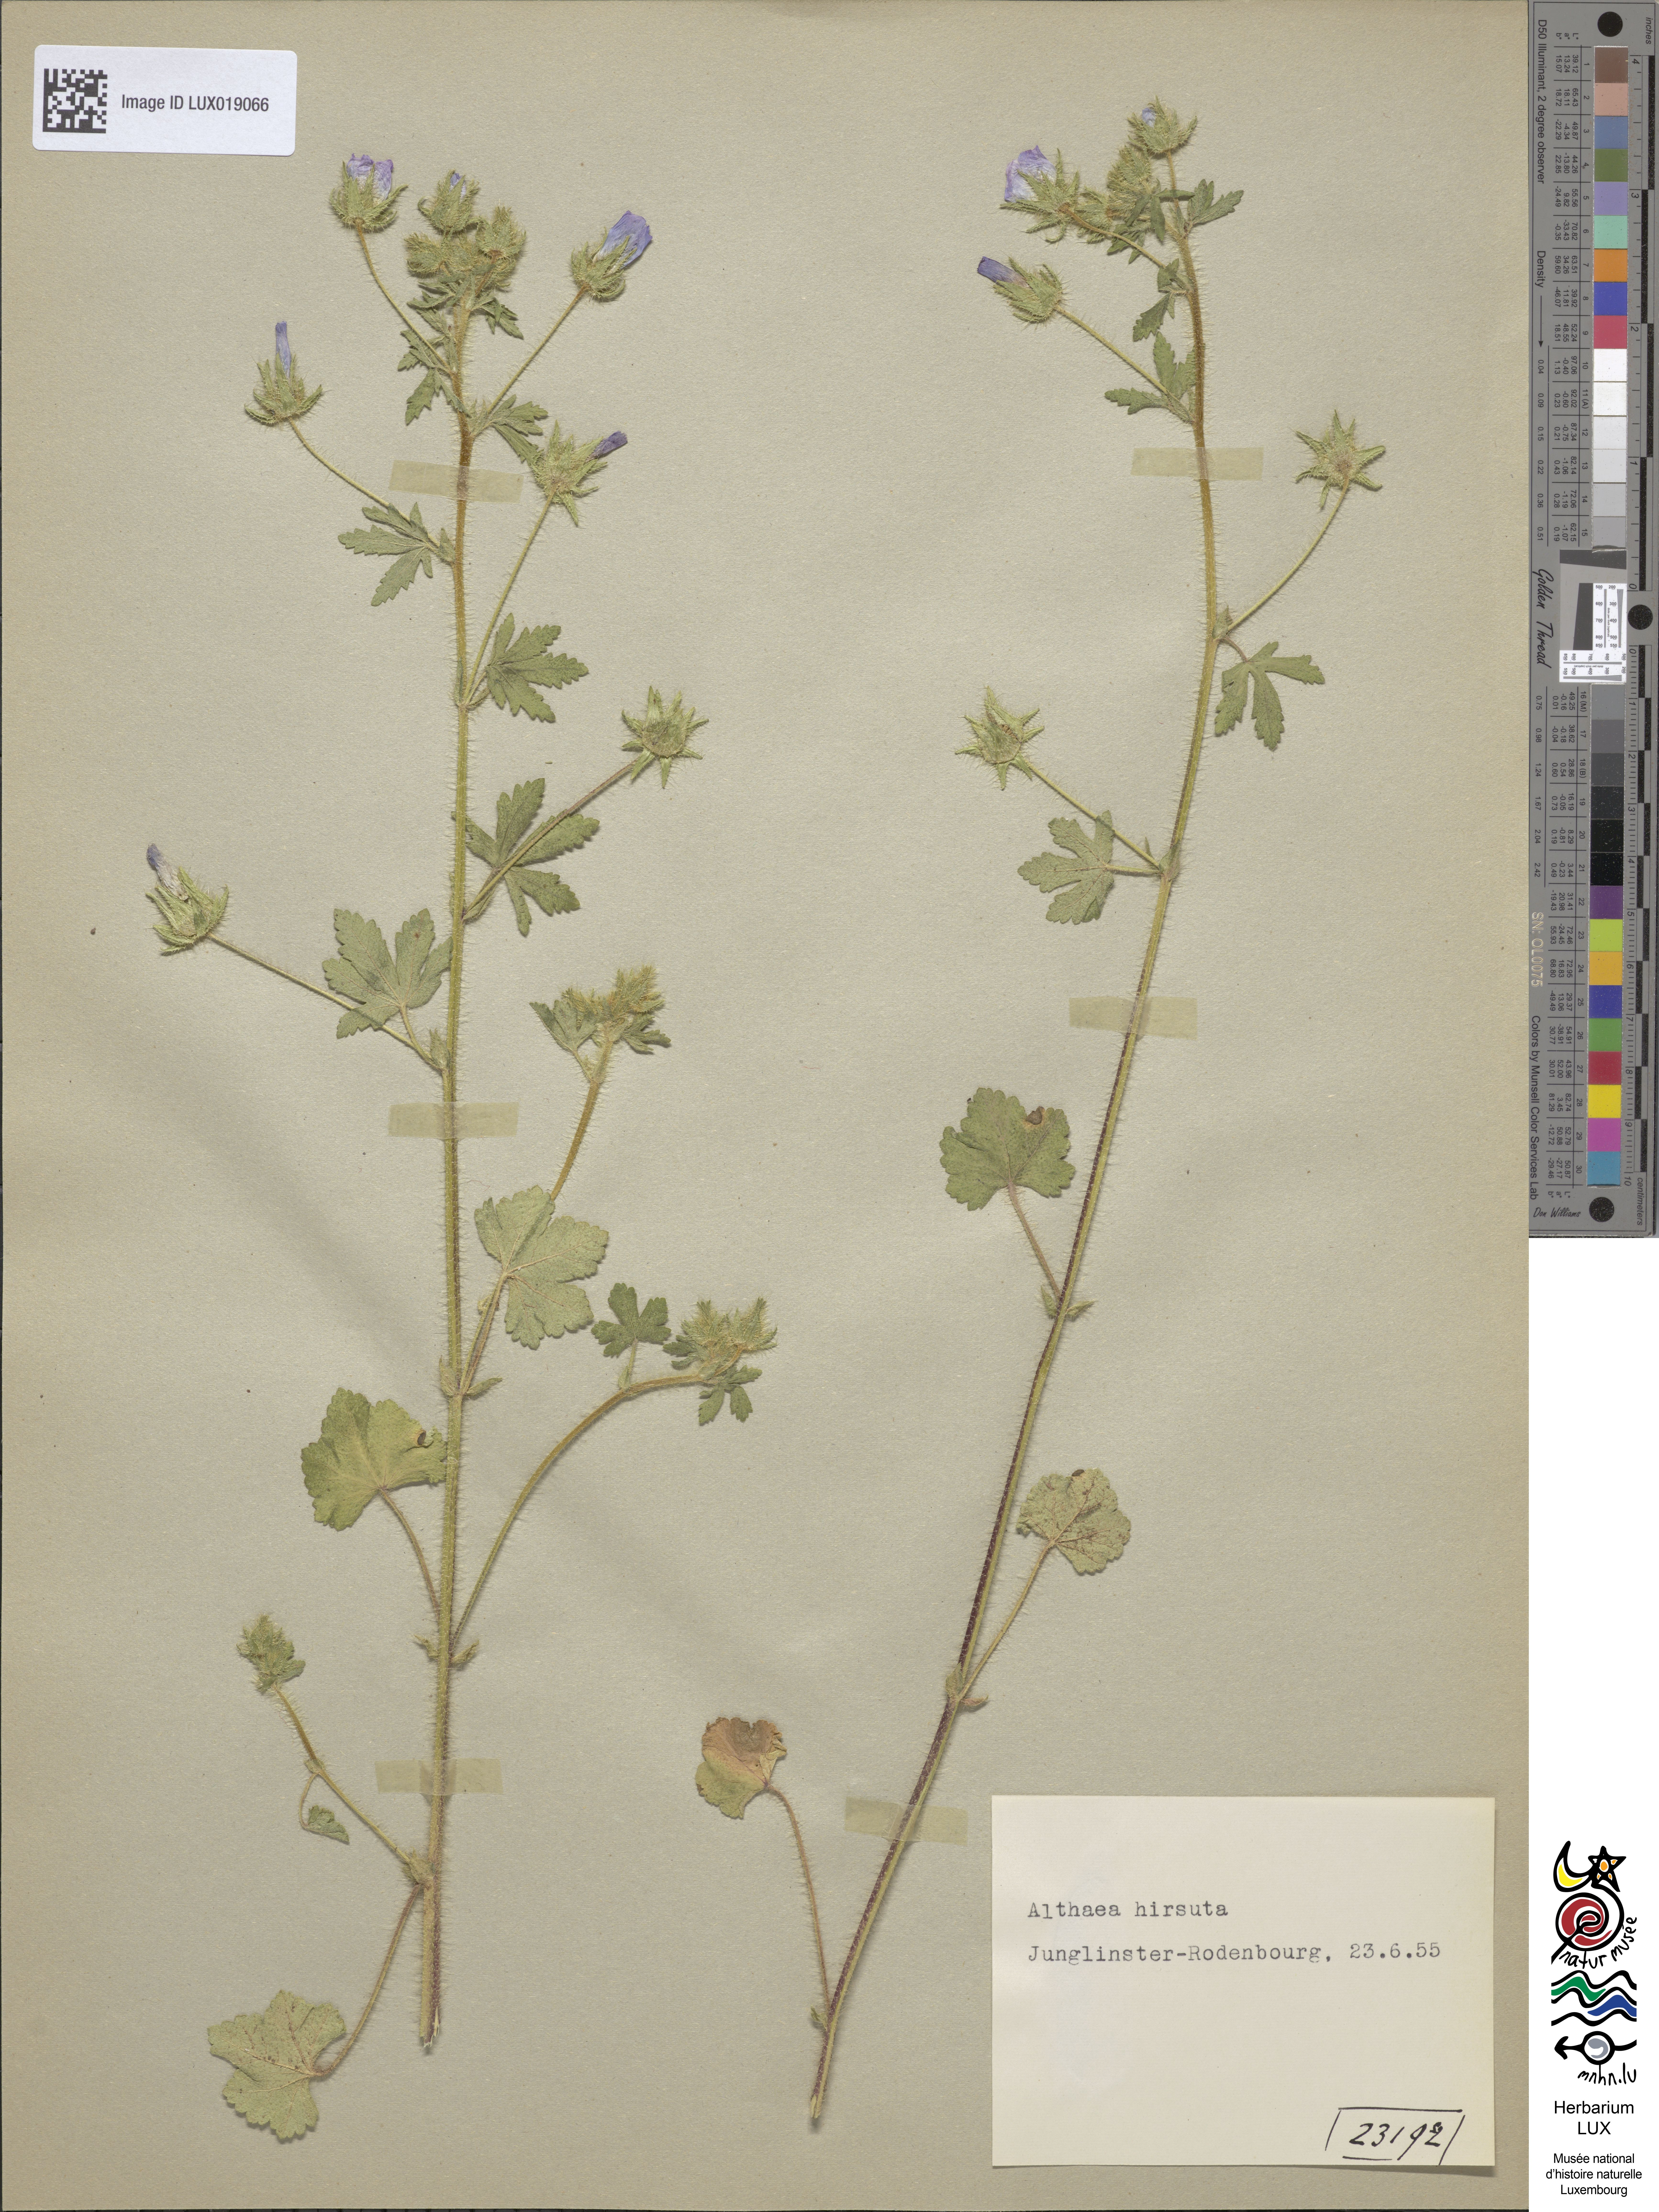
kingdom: Plantae
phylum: Tracheophyta
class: Magnoliopsida
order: Malvales
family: Malvaceae
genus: Althaea
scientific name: Althaea hirsuta
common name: Rough marsh-mallow
